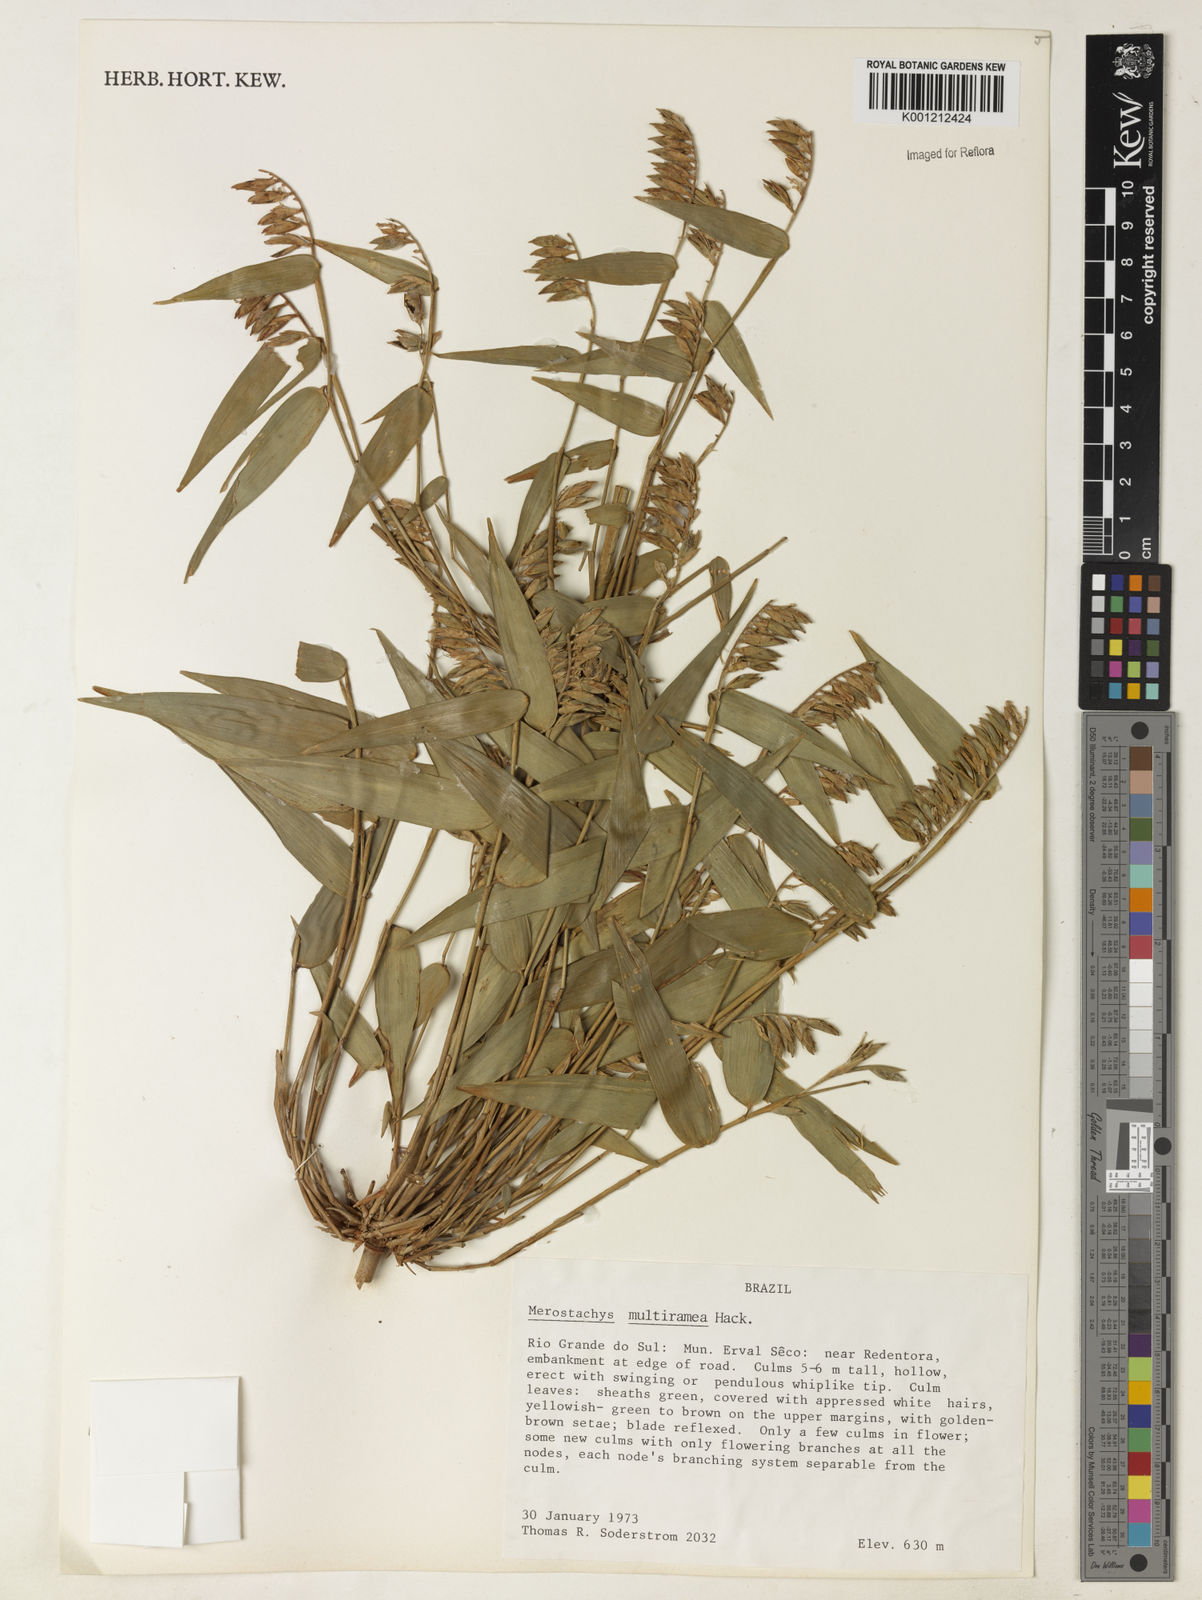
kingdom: Plantae
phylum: Tracheophyta
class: Liliopsida
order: Poales
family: Poaceae
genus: Merostachys
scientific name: Merostachys multiramea
